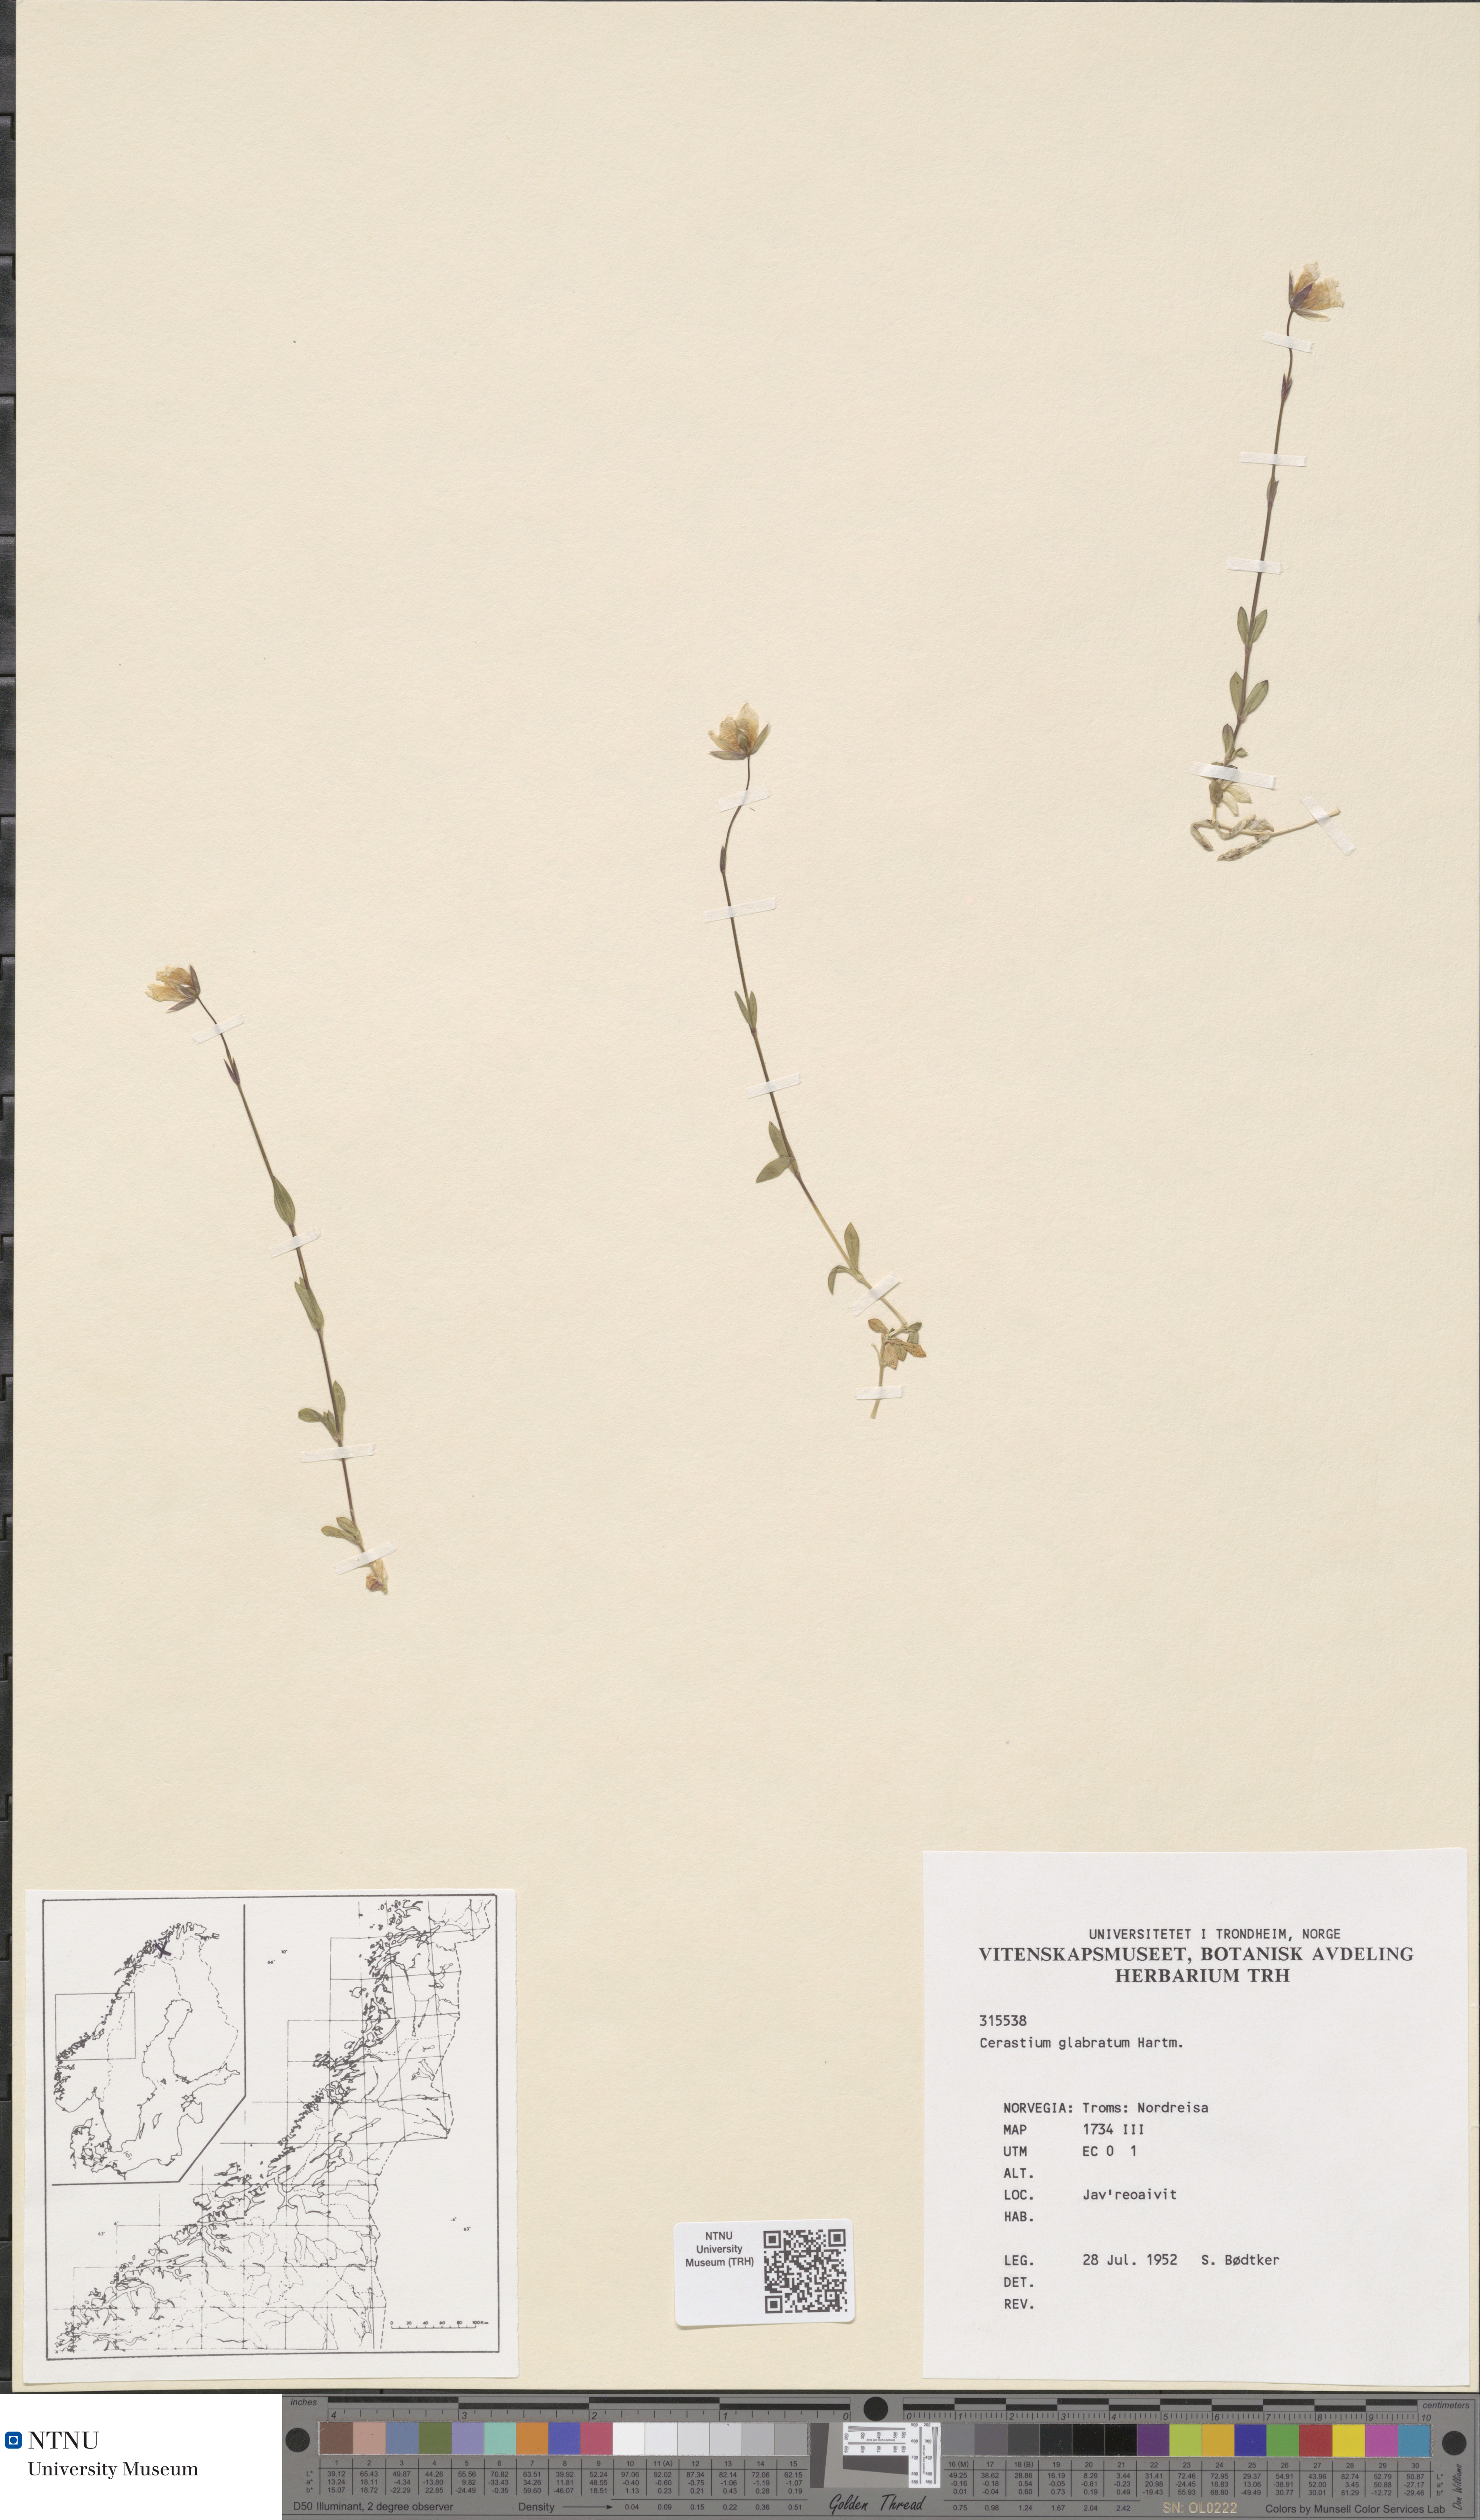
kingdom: Plantae
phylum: Tracheophyta
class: Magnoliopsida
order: Caryophyllales
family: Caryophyllaceae
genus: Cerastium
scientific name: Cerastium alpinum
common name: Alpine mouse-ear
